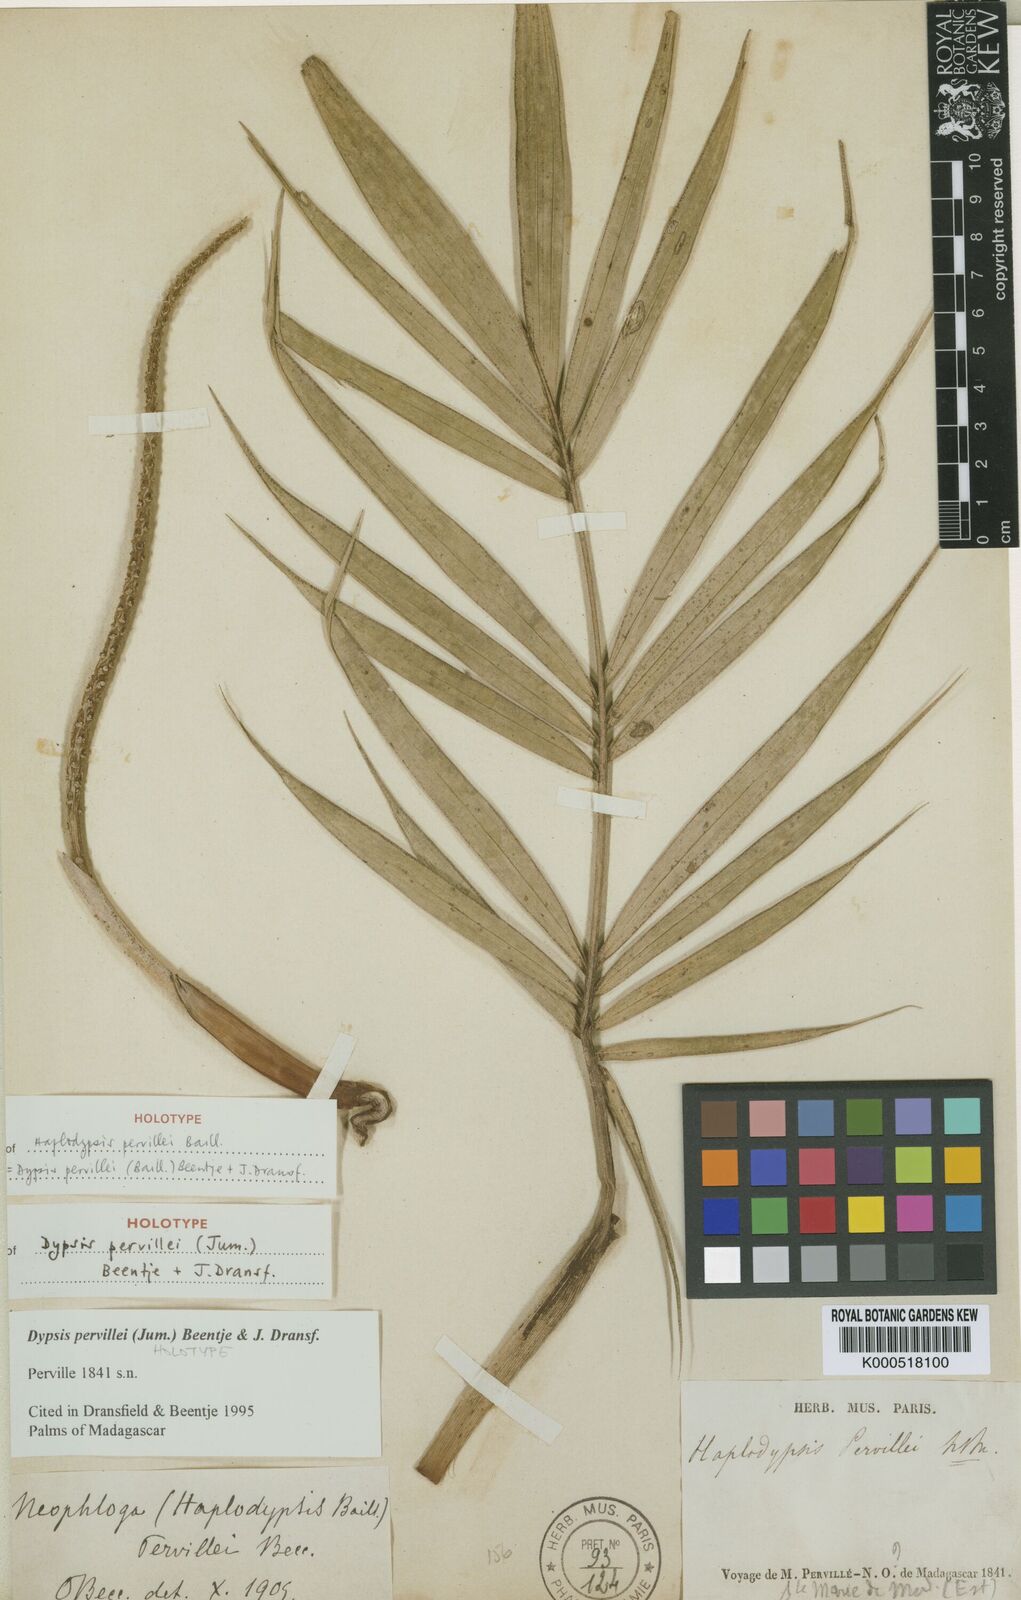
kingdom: Plantae
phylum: Tracheophyta
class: Liliopsida
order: Arecales
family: Arecaceae
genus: Dypsis
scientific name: Dypsis pervillei
